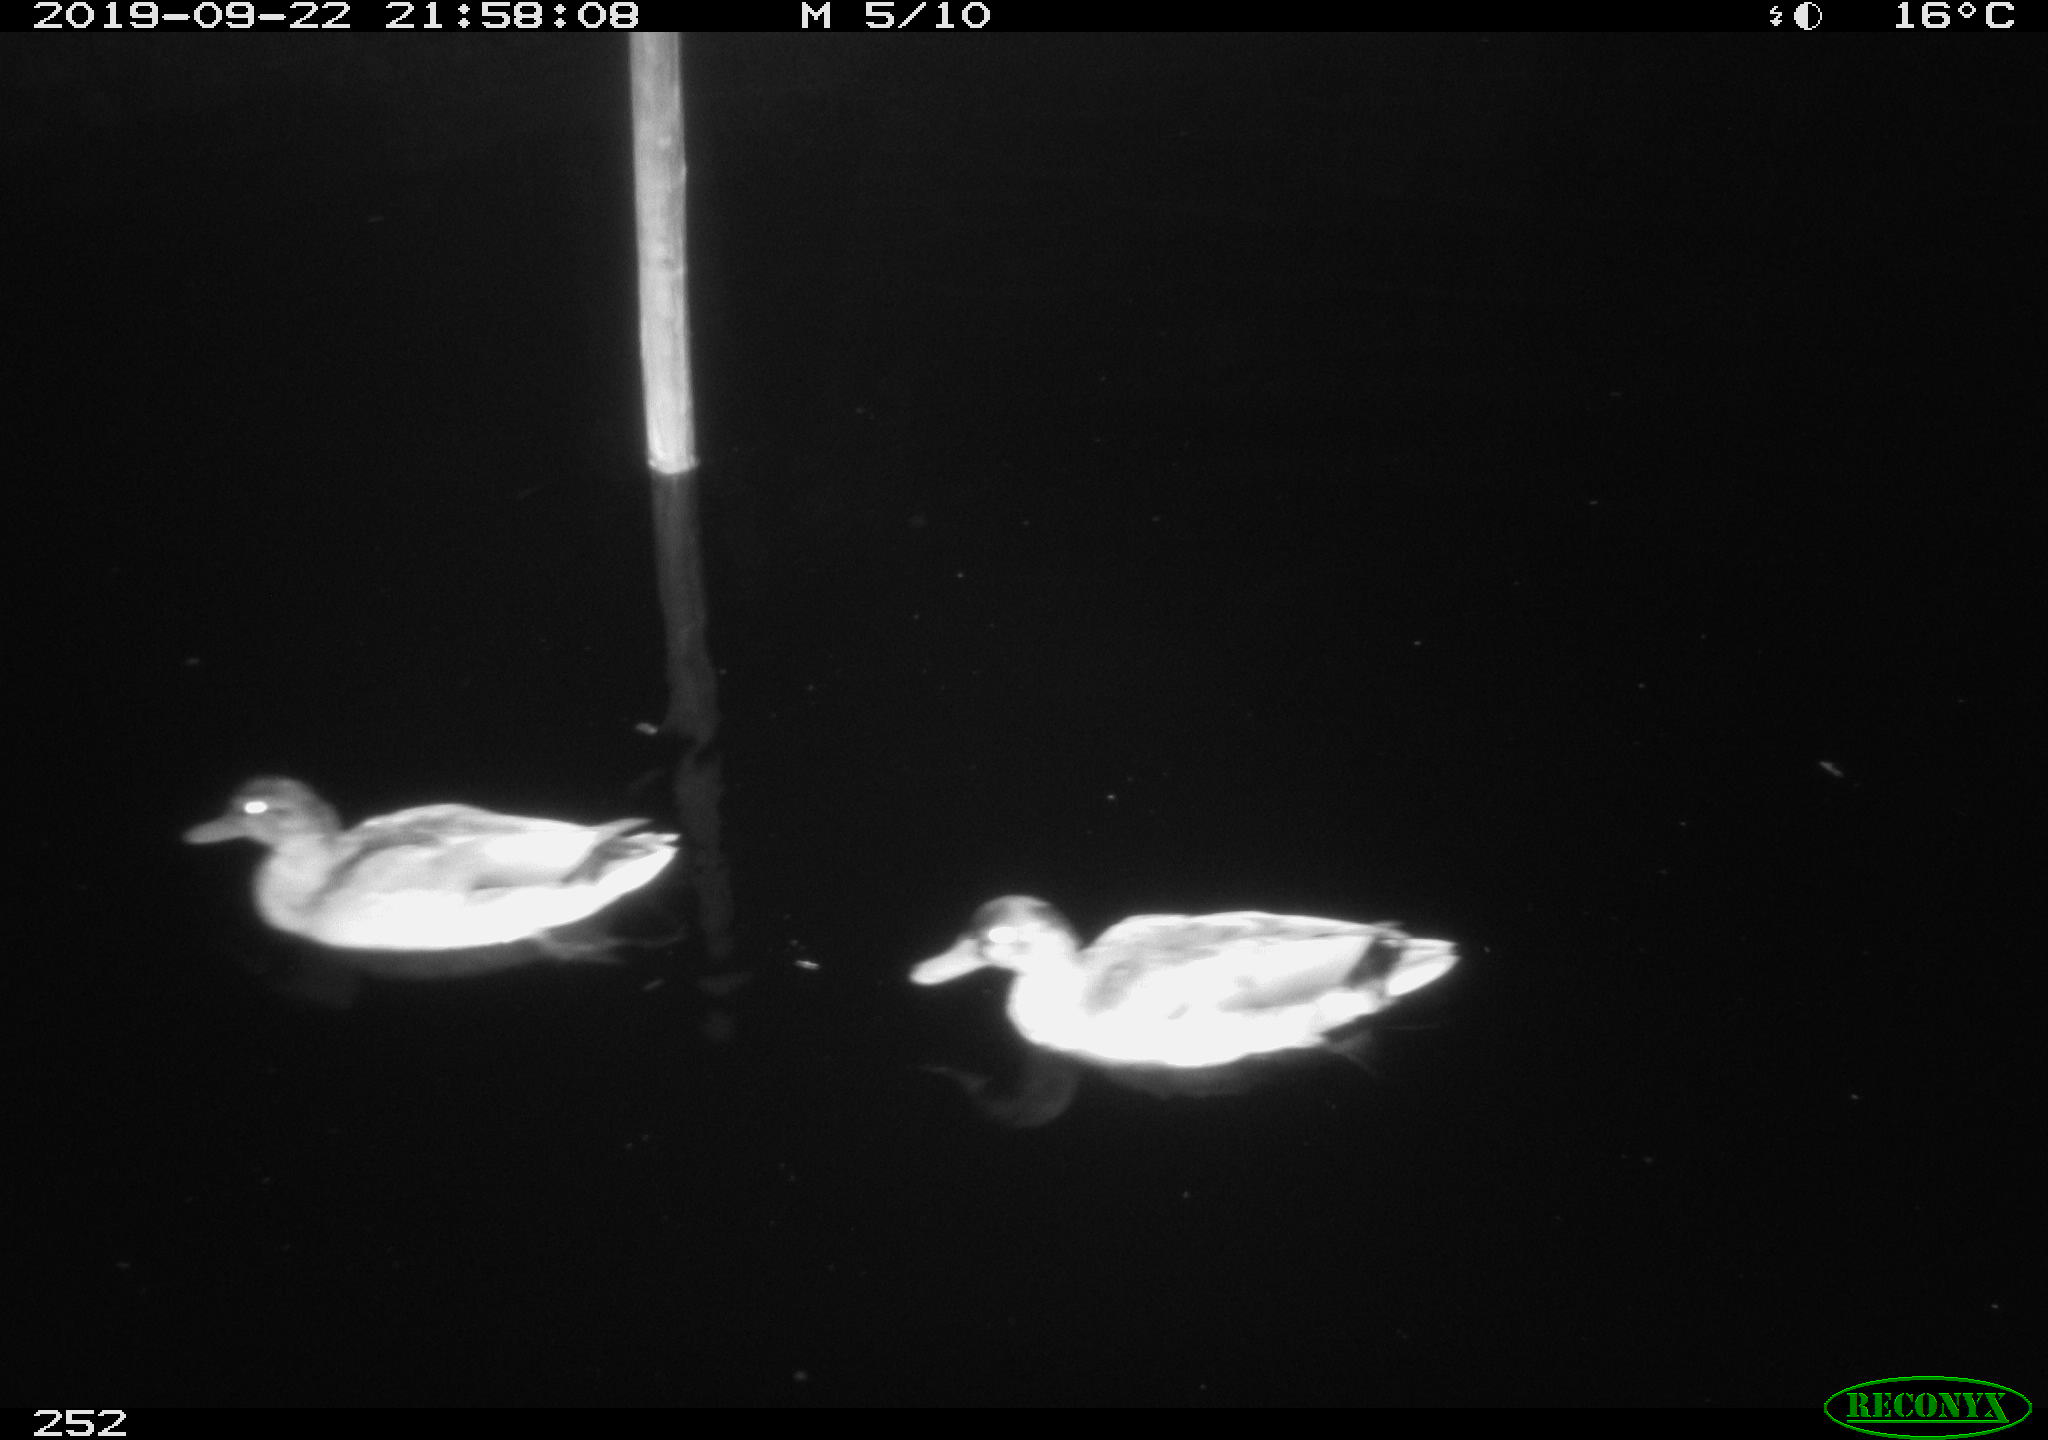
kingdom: Animalia
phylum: Chordata
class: Aves
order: Anseriformes
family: Anatidae
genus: Anas
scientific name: Anas platyrhynchos
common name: Mallard
